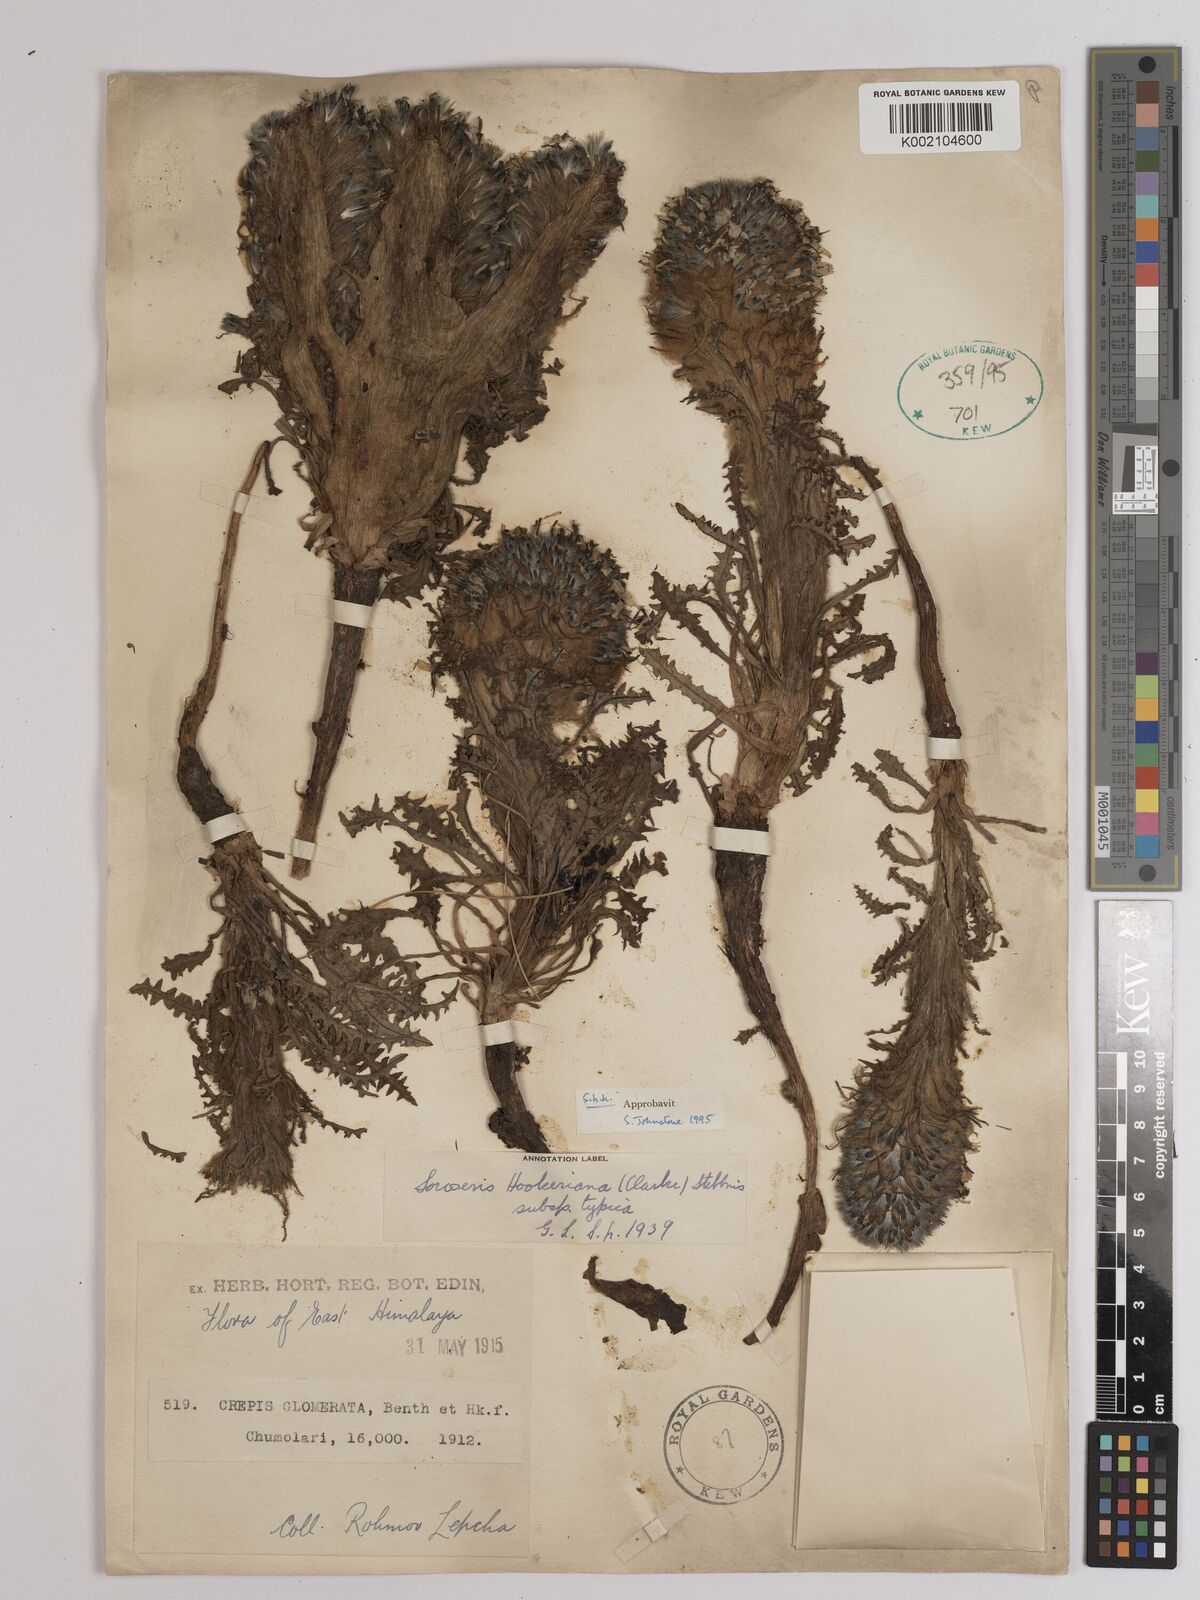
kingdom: Plantae
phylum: Tracheophyta
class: Magnoliopsida
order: Asterales
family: Asteraceae
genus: Soroseris
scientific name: Soroseris hookeriana
